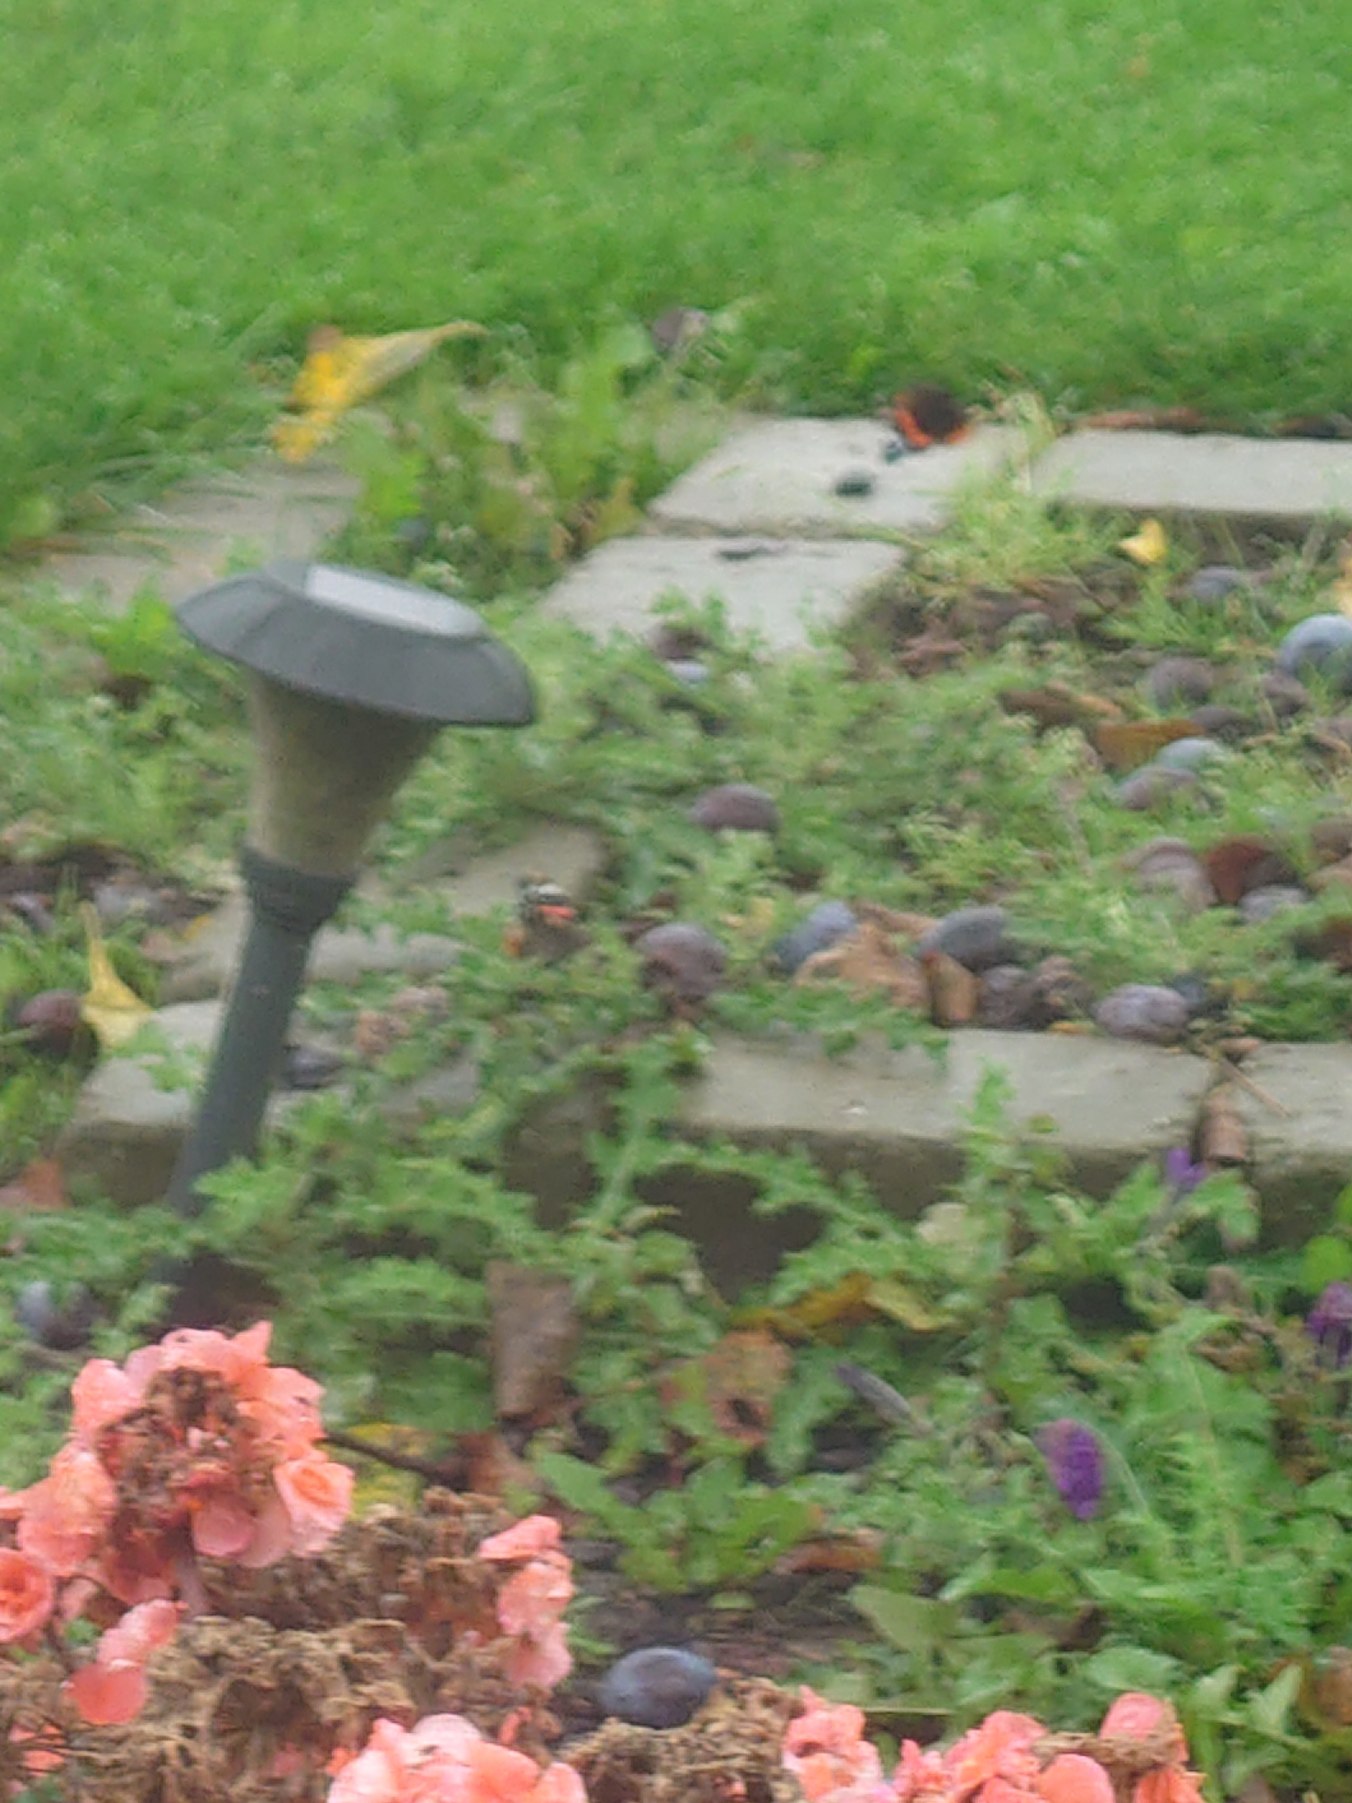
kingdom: Animalia
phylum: Arthropoda
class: Insecta
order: Lepidoptera
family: Nymphalidae
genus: Vanessa
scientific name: Vanessa atalanta
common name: Admiral
